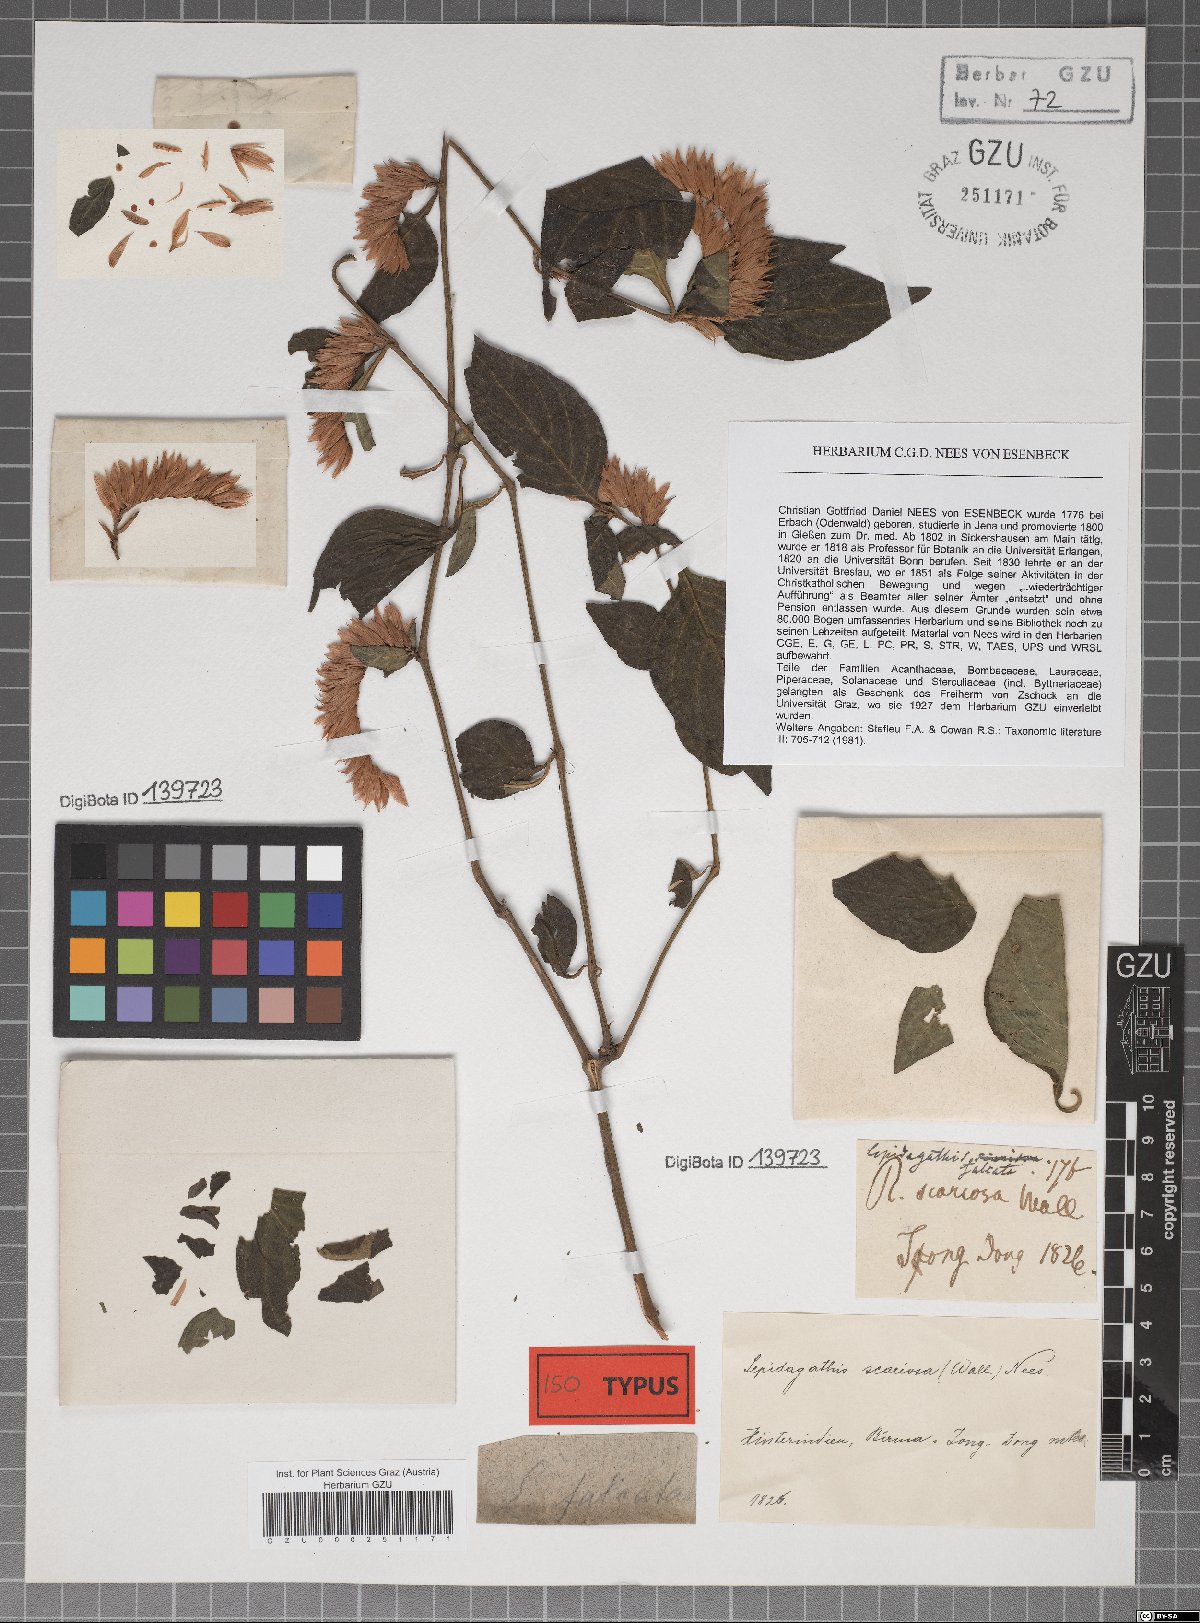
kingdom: Plantae
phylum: Tracheophyta
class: Magnoliopsida
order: Lamiales
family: Acanthaceae
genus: Lepidagathis
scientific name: Lepidagathis falcata
